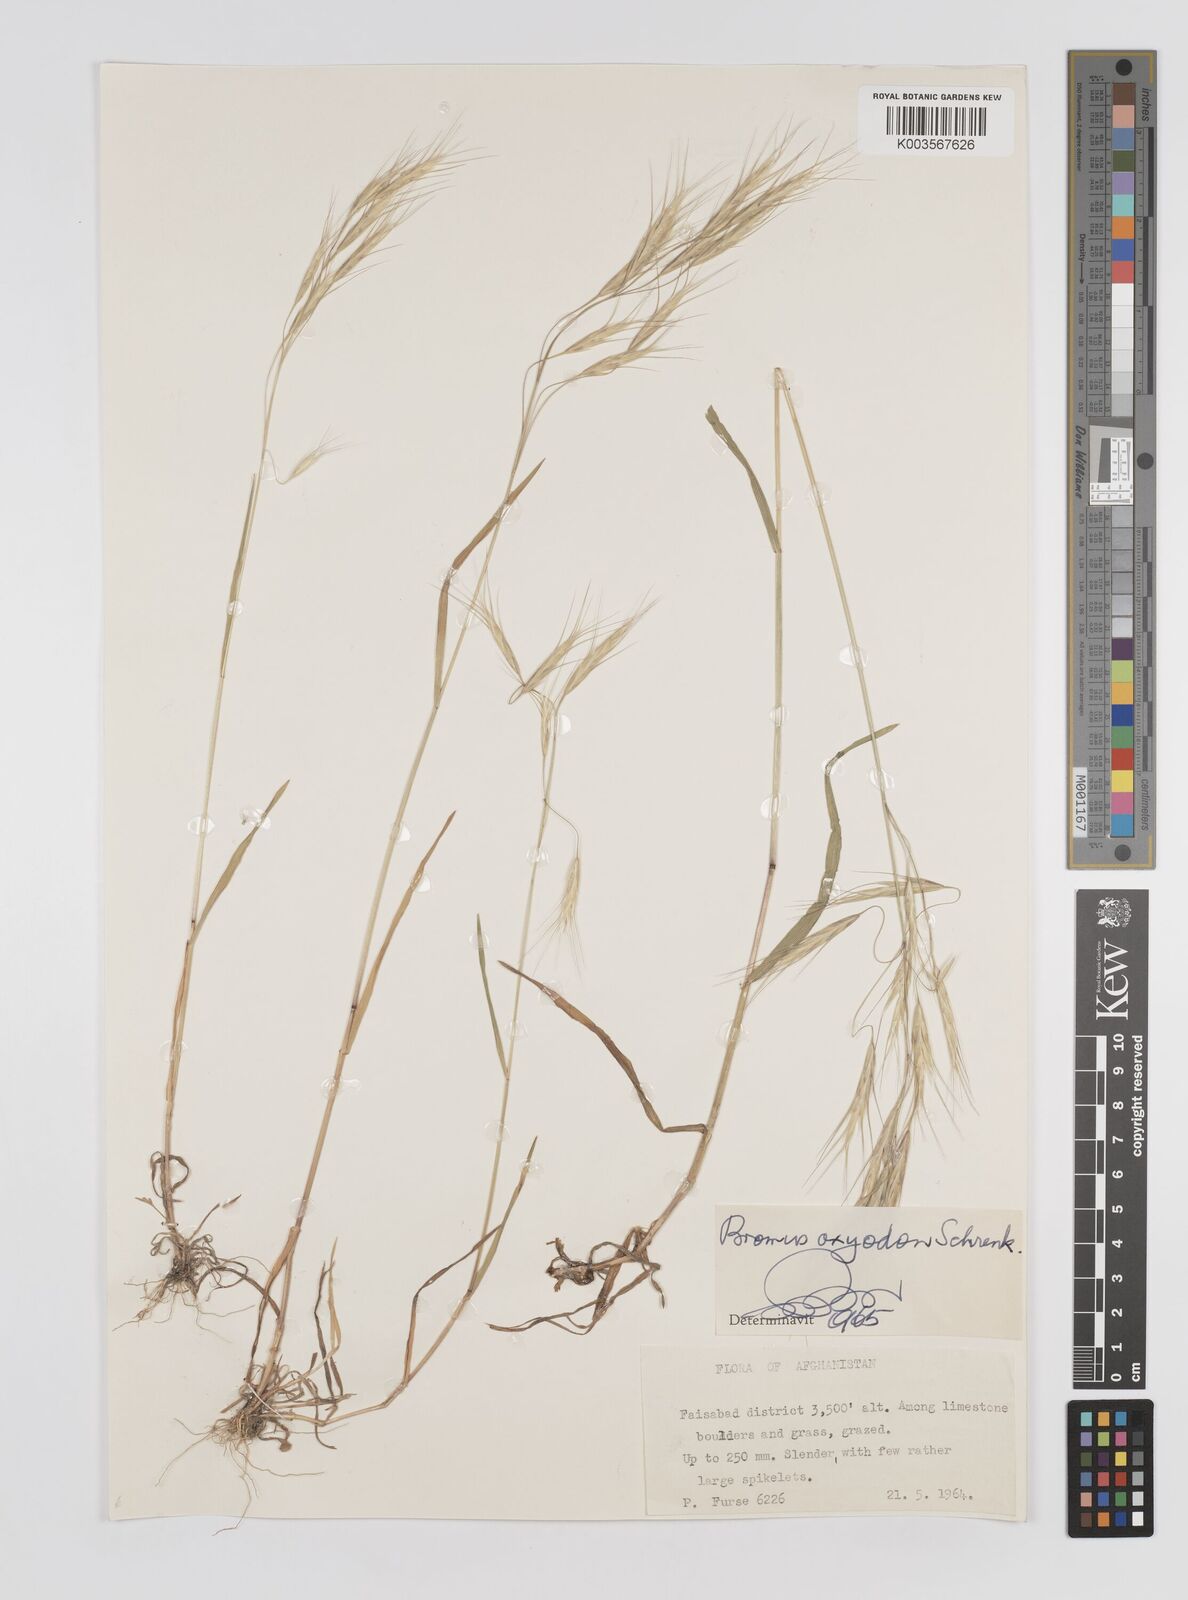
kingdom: Plantae
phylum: Tracheophyta
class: Liliopsida
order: Poales
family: Poaceae
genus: Bromus
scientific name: Bromus oxyodon
